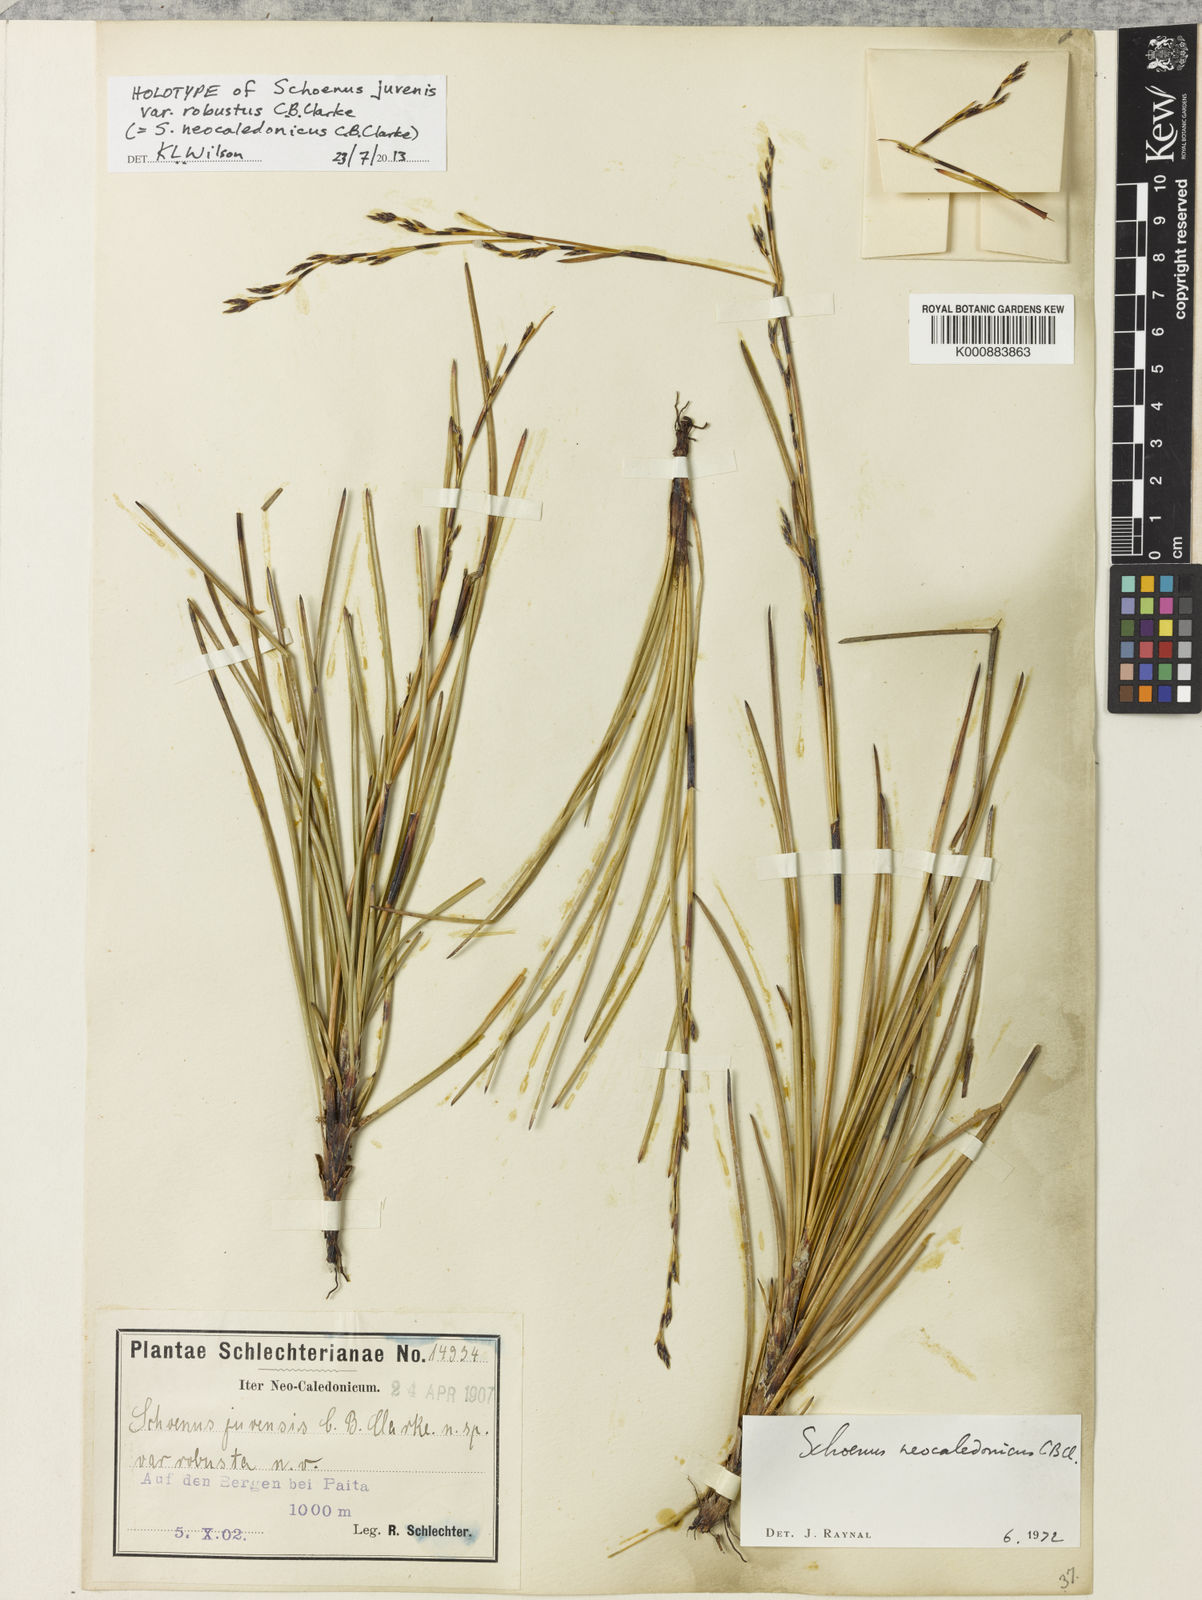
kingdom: Plantae
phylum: Tracheophyta
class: Liliopsida
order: Poales
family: Cyperaceae
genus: Schoenus
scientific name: Schoenus neocaledonicus
